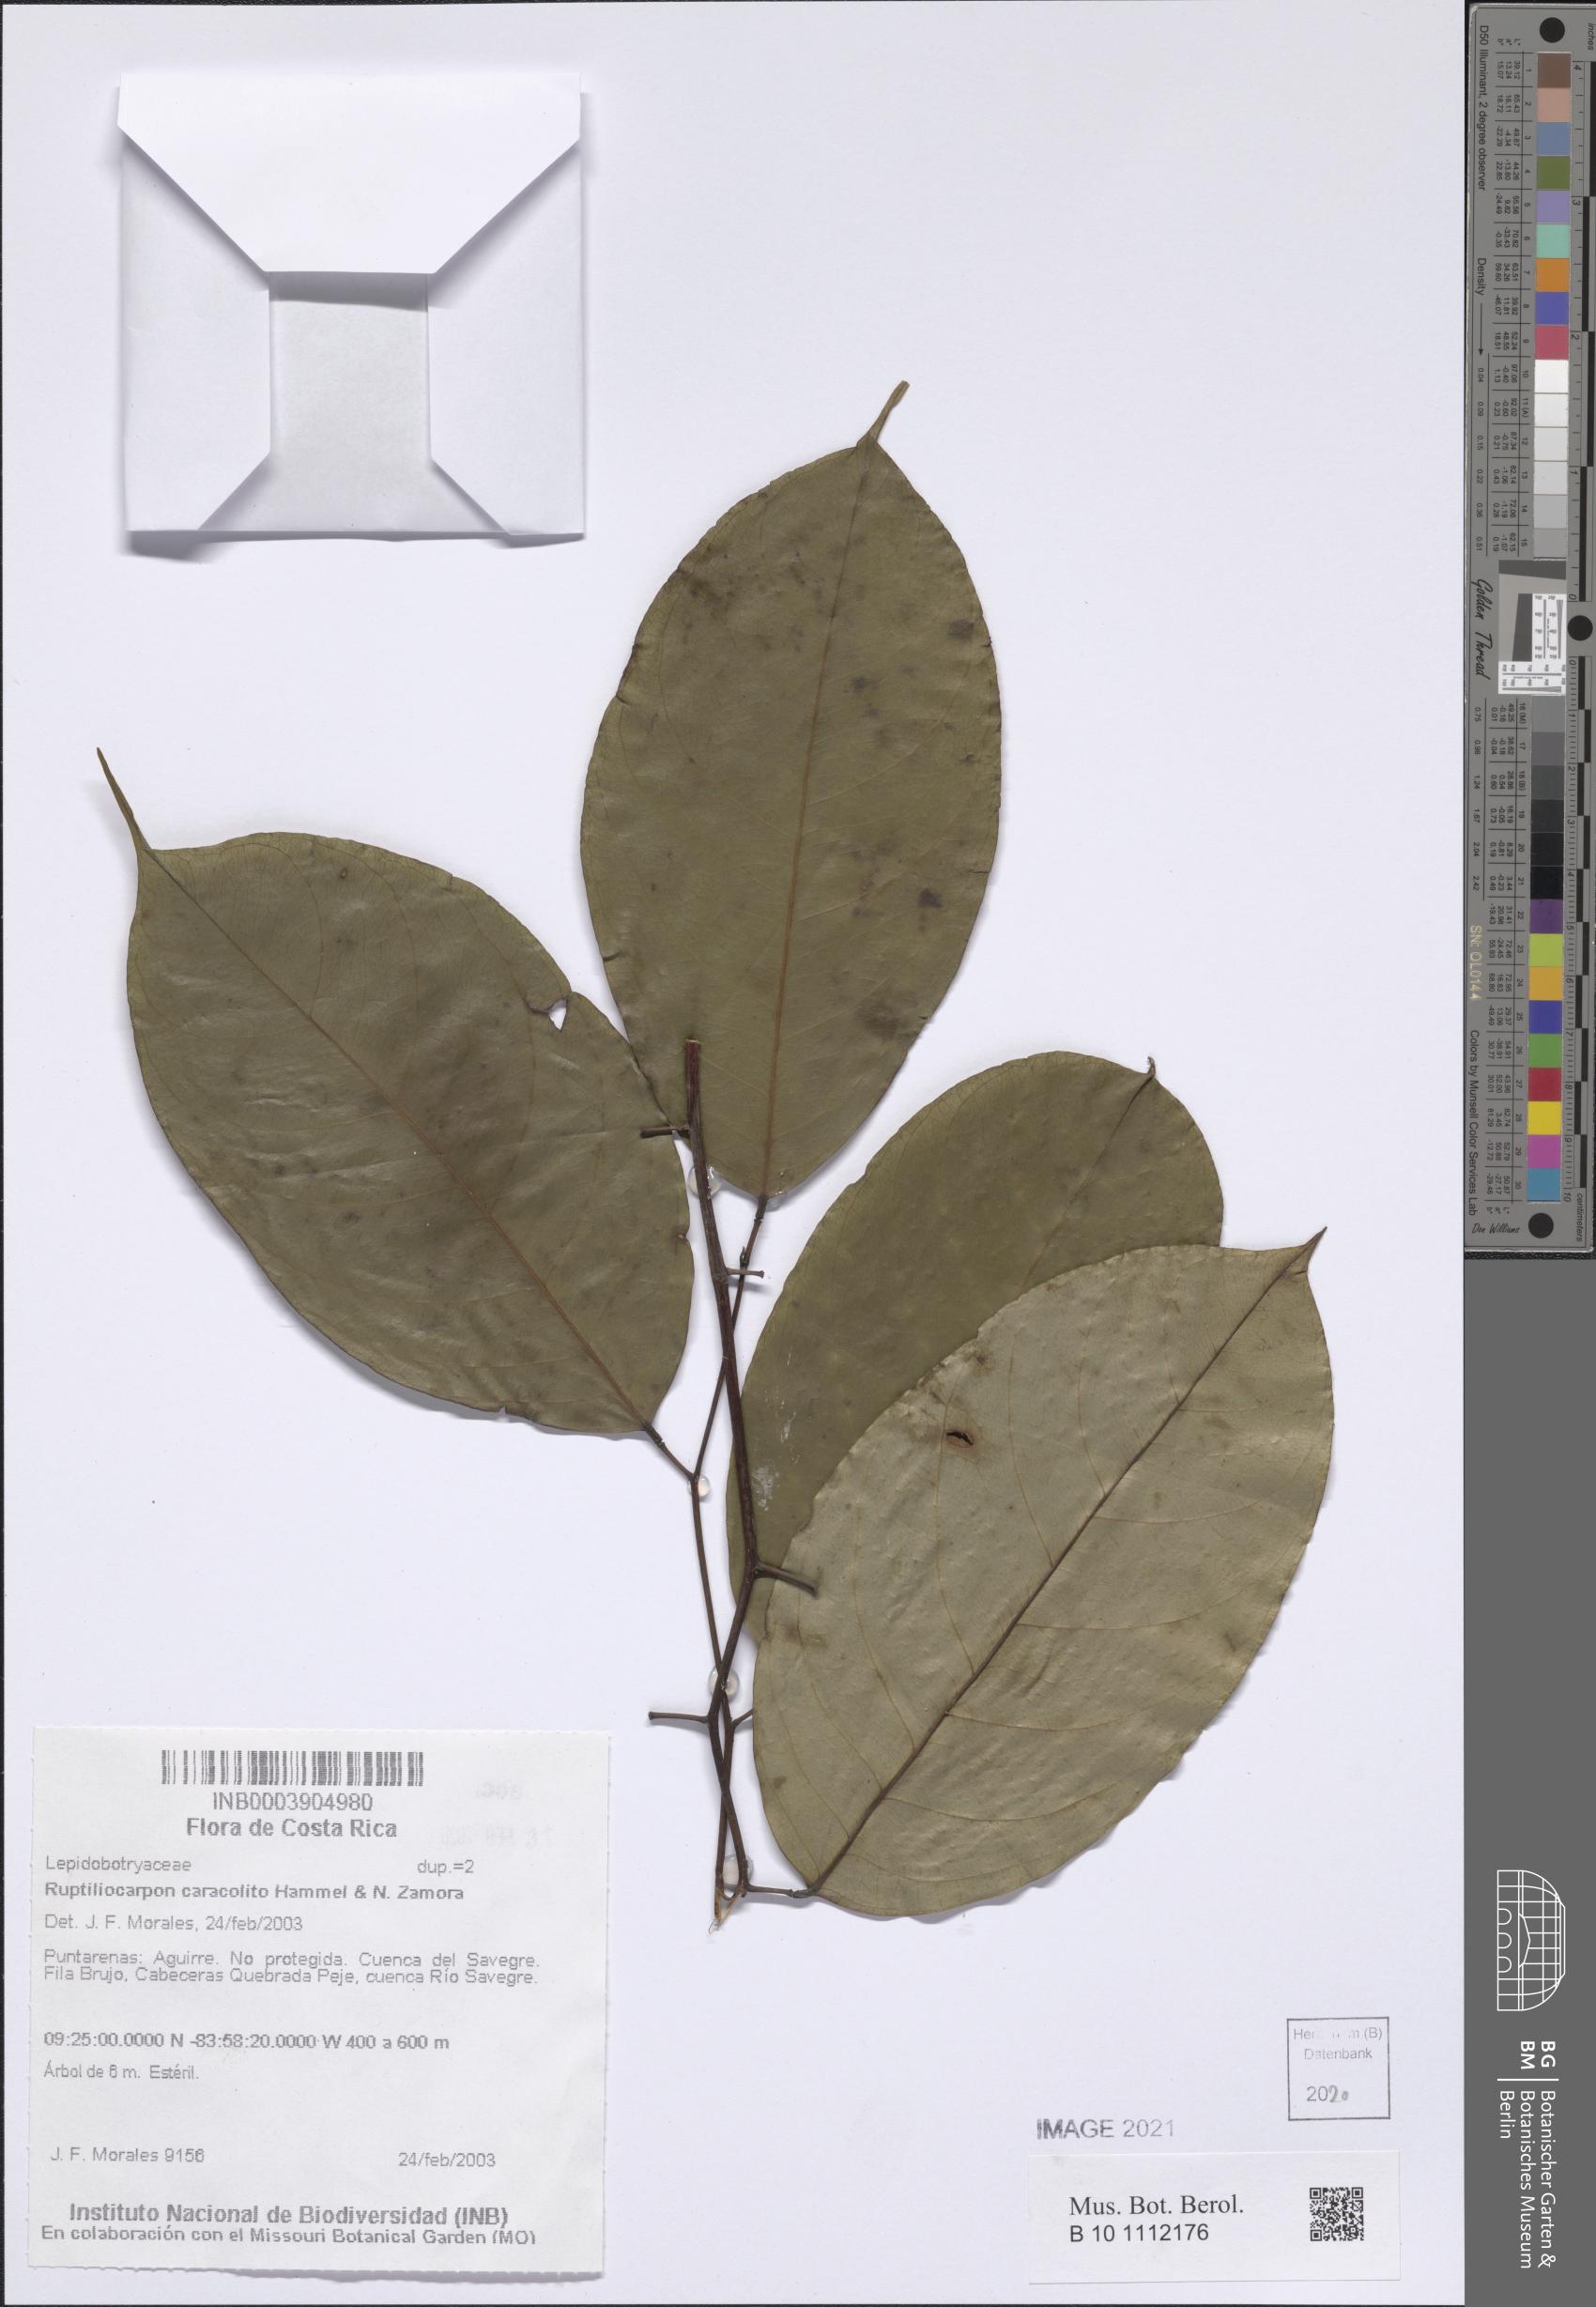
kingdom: Plantae
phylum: Tracheophyta
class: Magnoliopsida
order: Celastrales
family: Lepidobotryaceae
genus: Ruptiliocarpon
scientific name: Ruptiliocarpon caracolito
